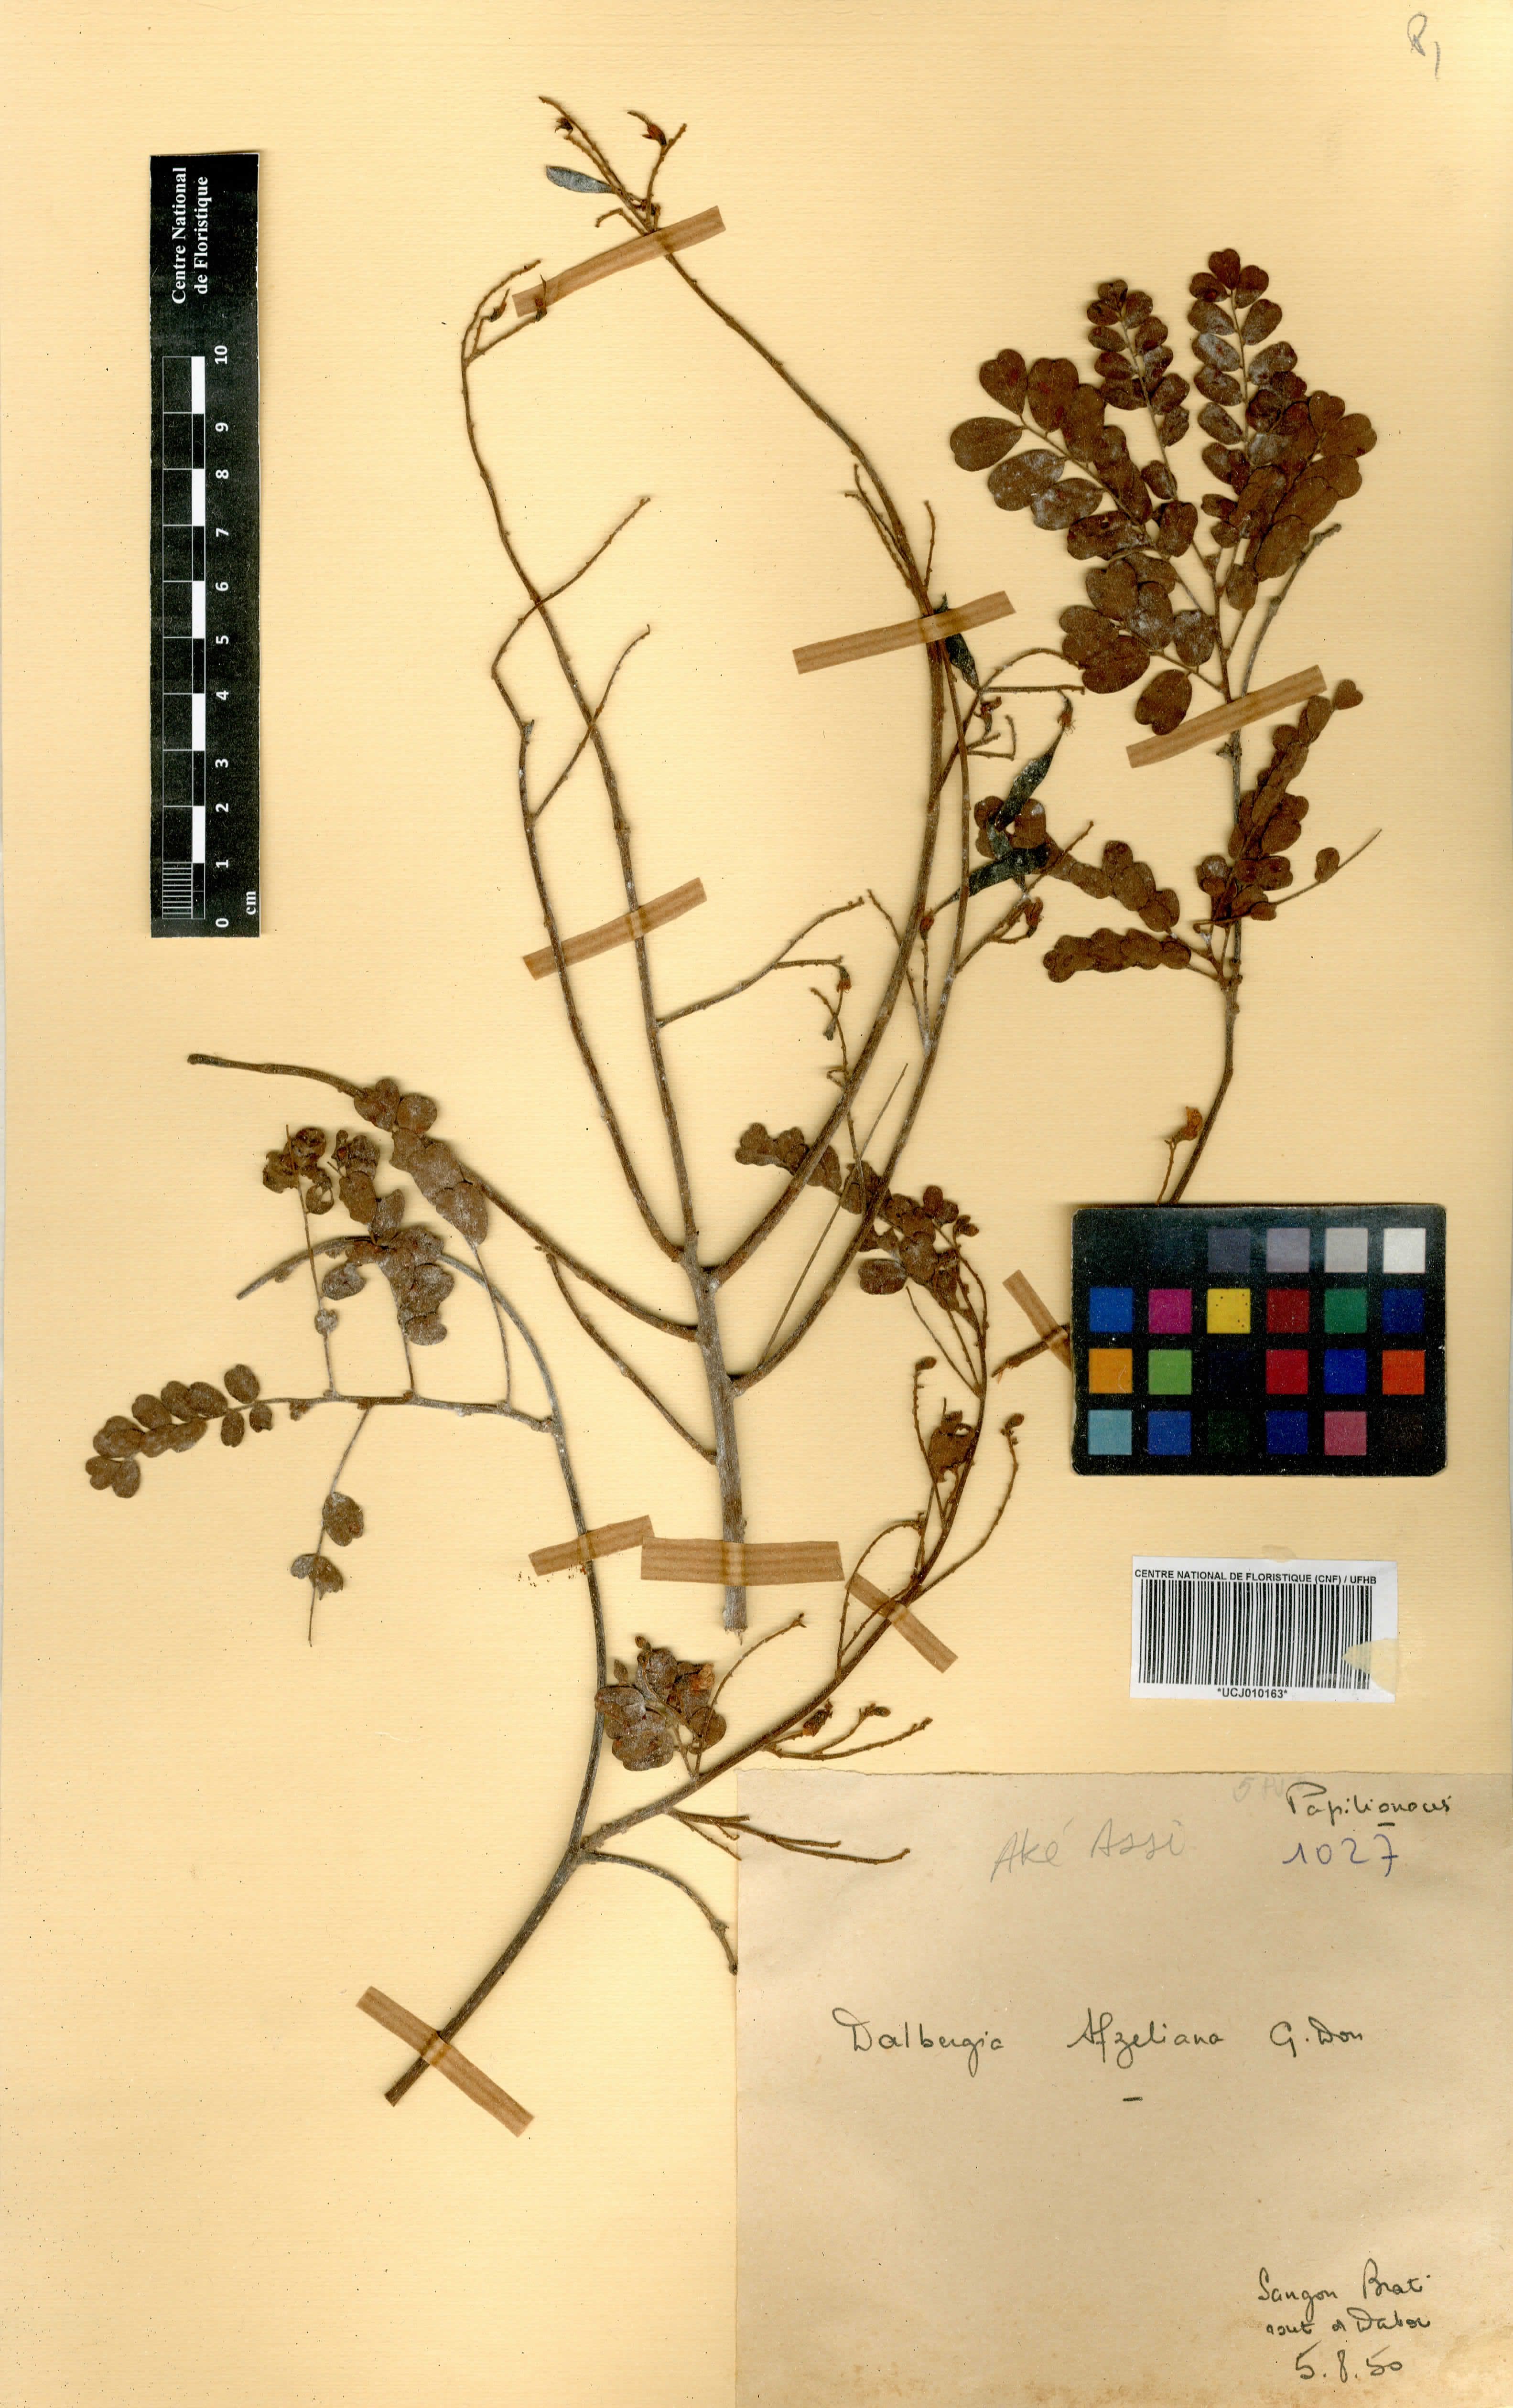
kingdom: Plantae
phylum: Tracheophyta
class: Magnoliopsida
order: Fabales
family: Fabaceae
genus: Dalbergia
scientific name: Dalbergia afzeliana
